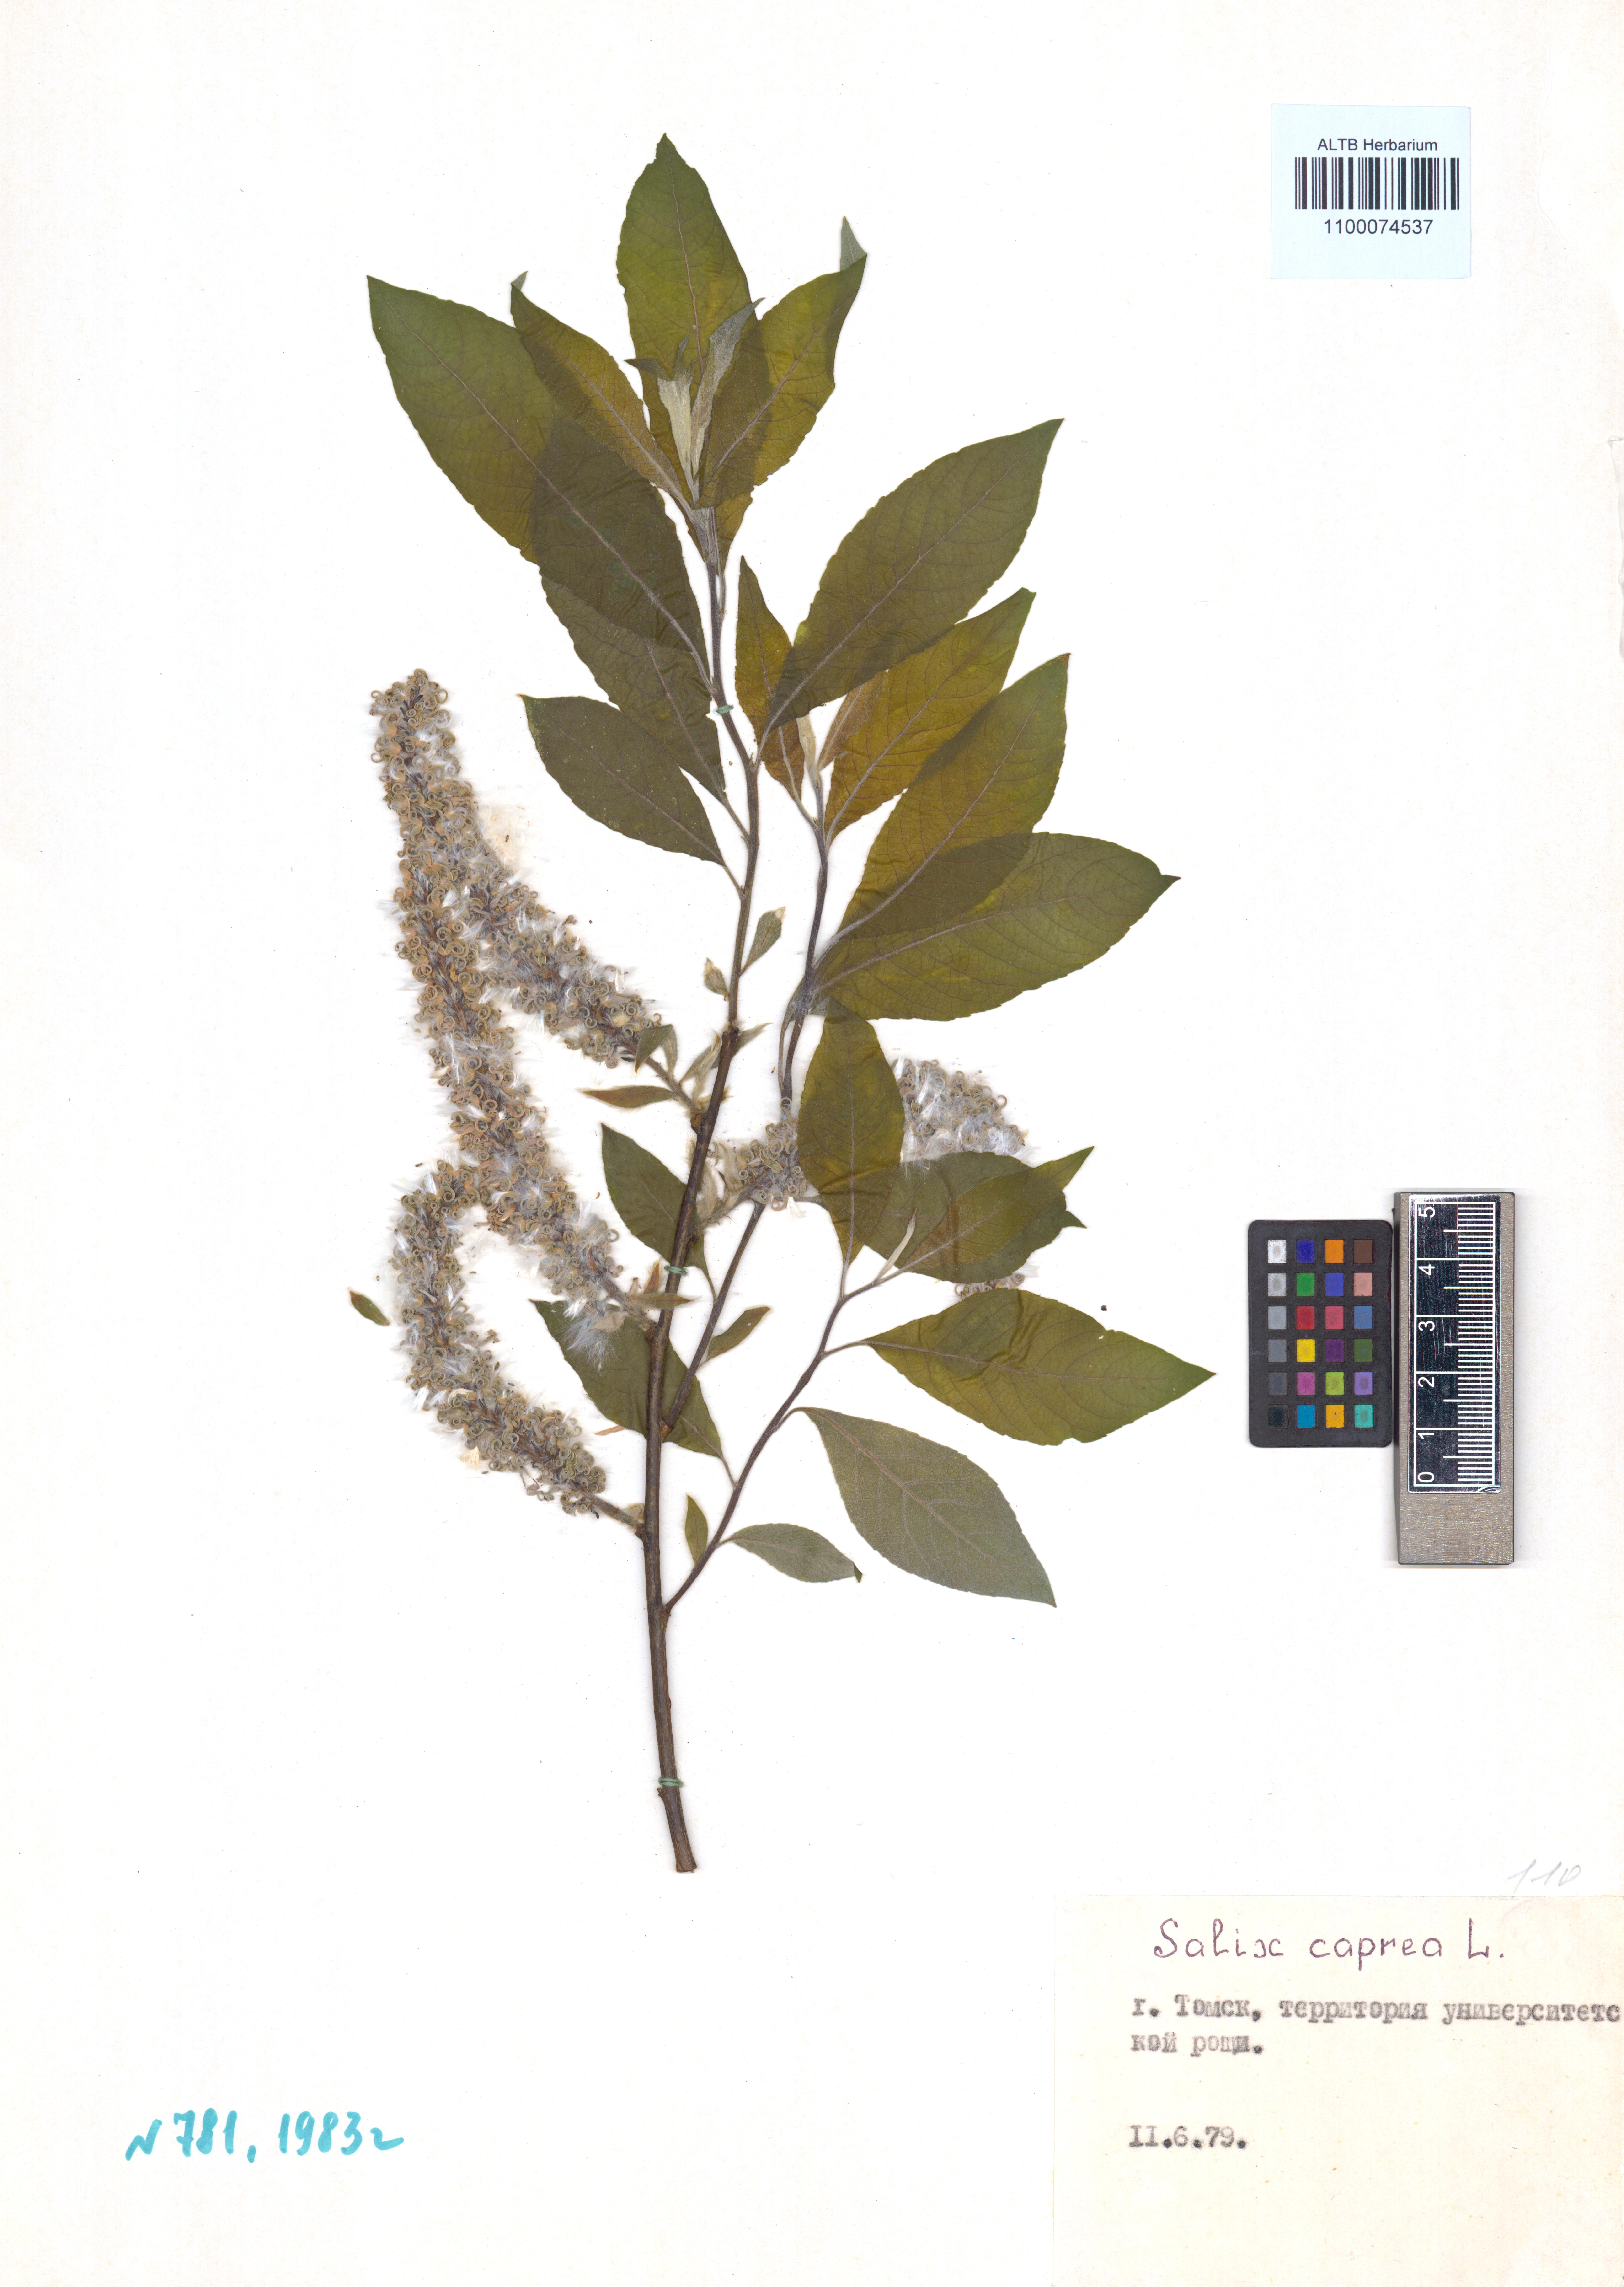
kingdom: Plantae
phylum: Tracheophyta
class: Magnoliopsida
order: Malpighiales
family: Salicaceae
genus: Salix
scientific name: Salix caprea
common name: Goat willow
